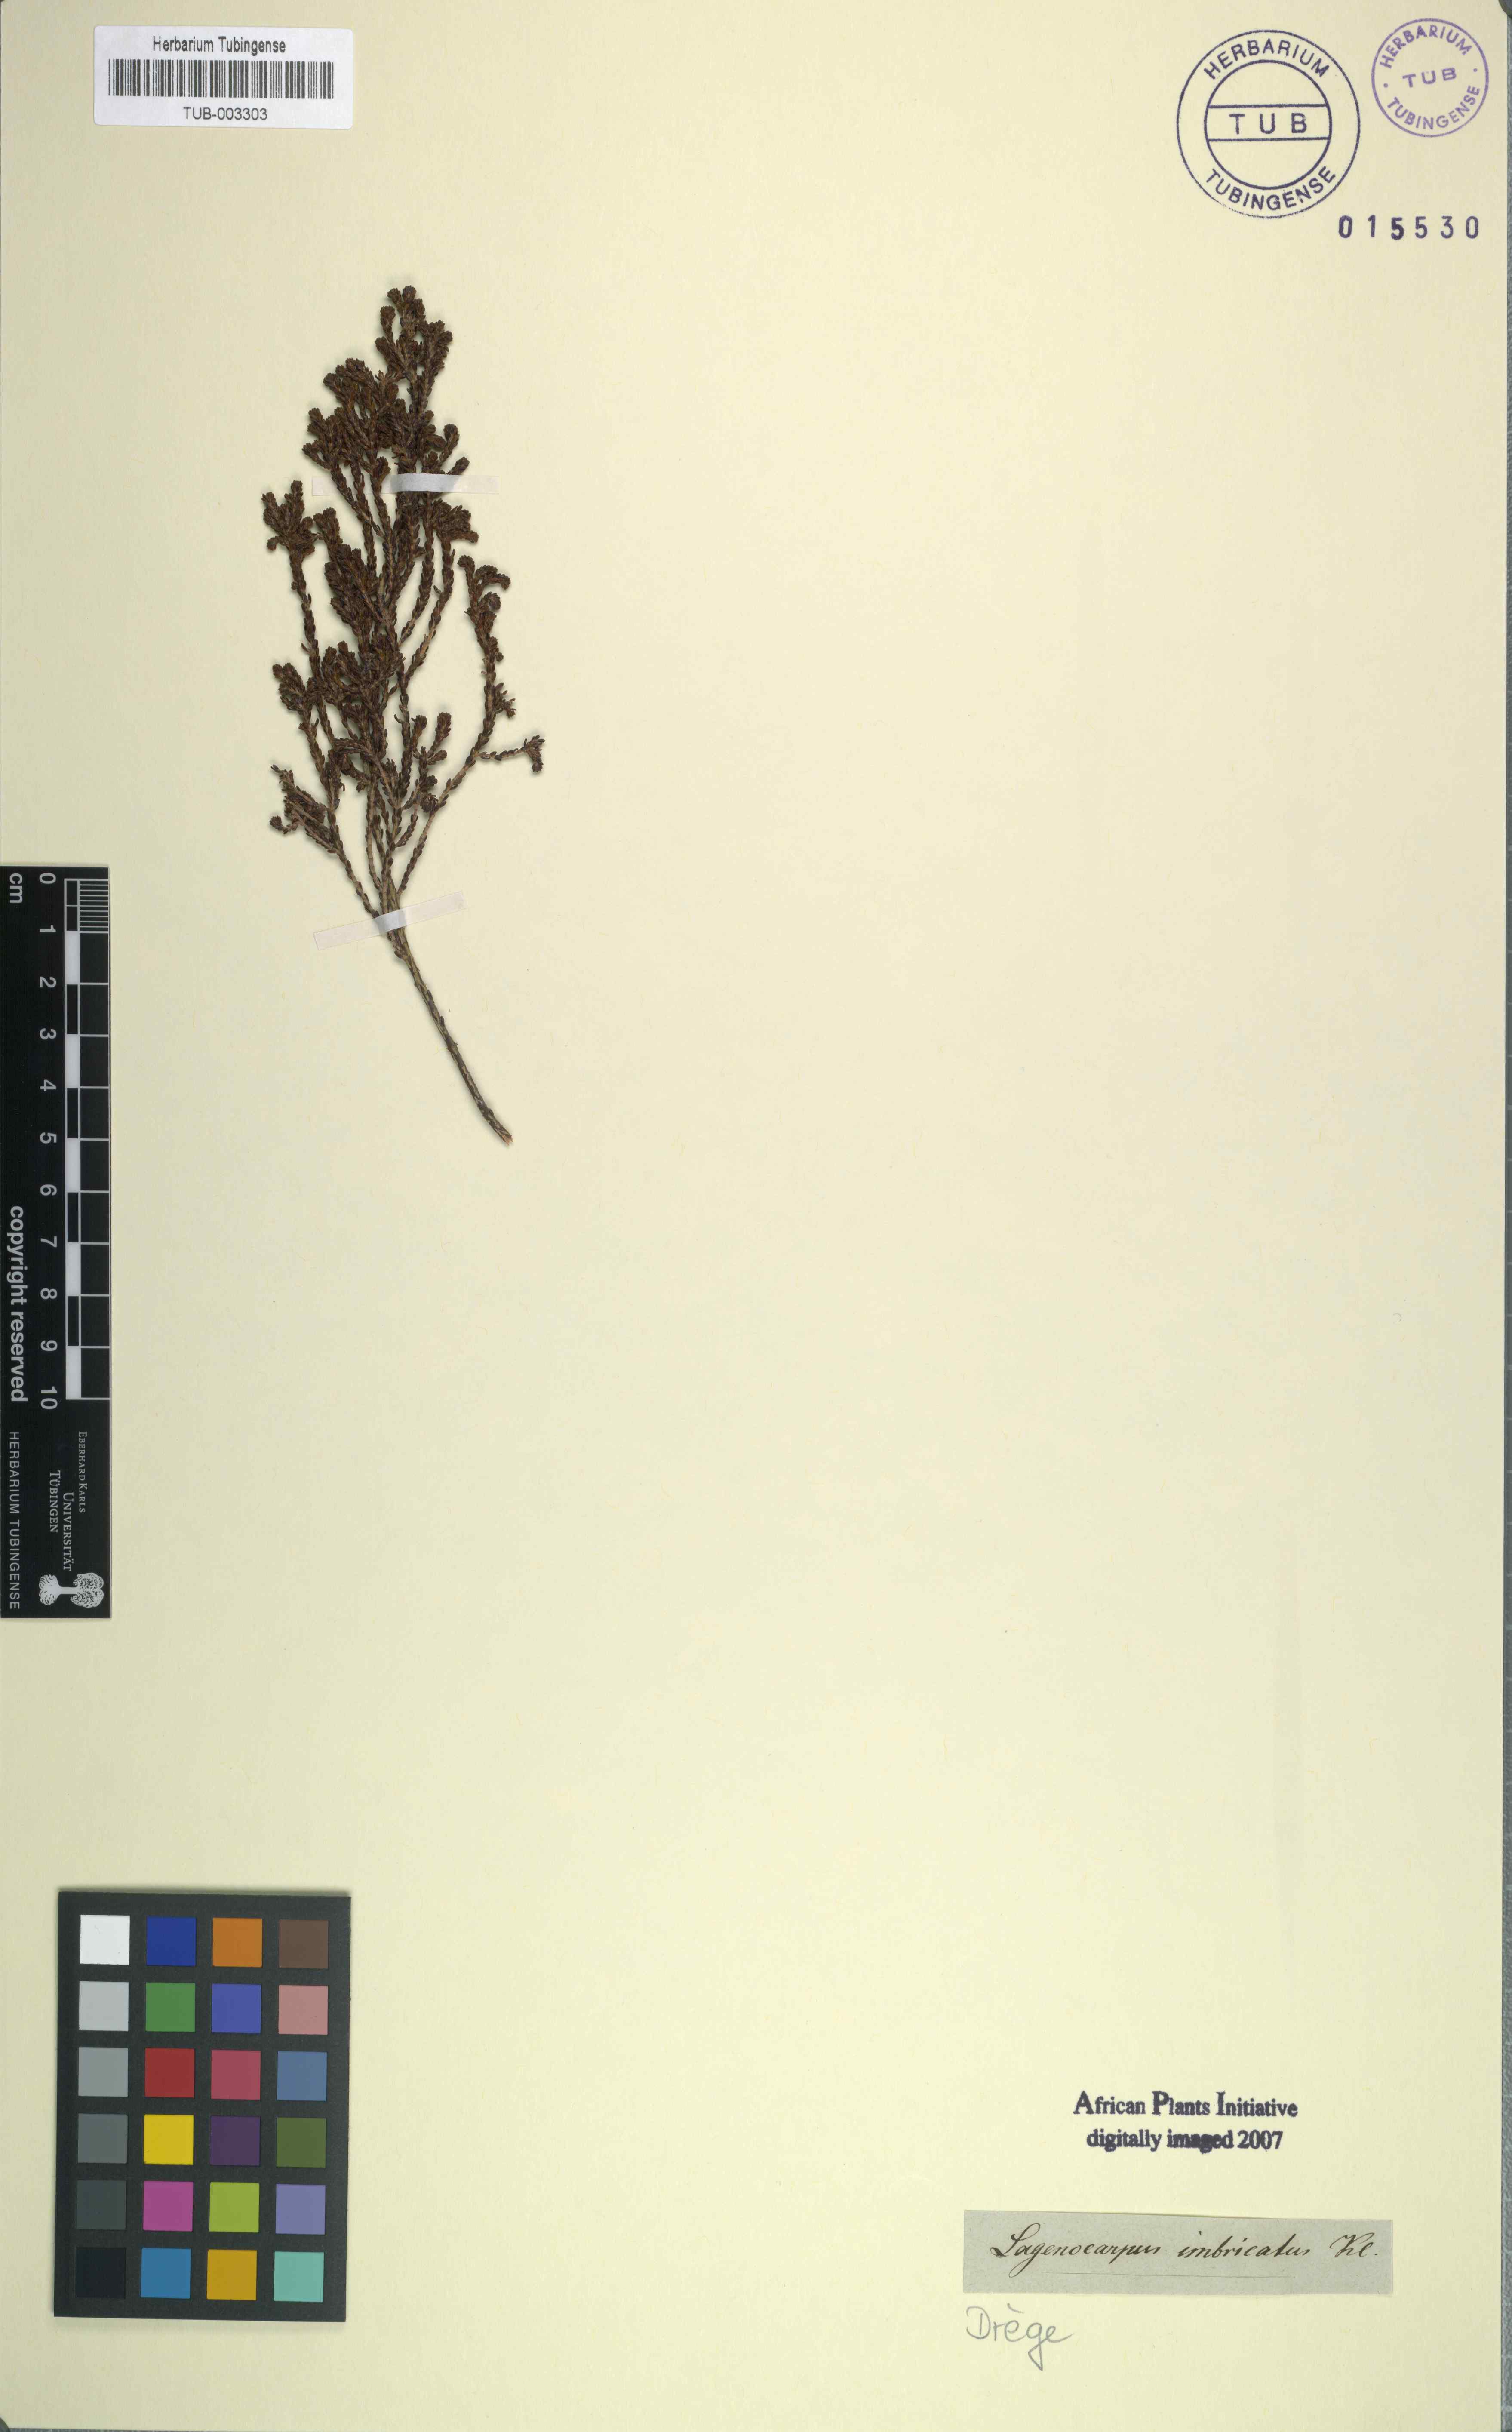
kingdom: Plantae
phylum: Tracheophyta
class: Magnoliopsida
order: Ericales
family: Ericaceae
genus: Erica
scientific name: Erica serrata
